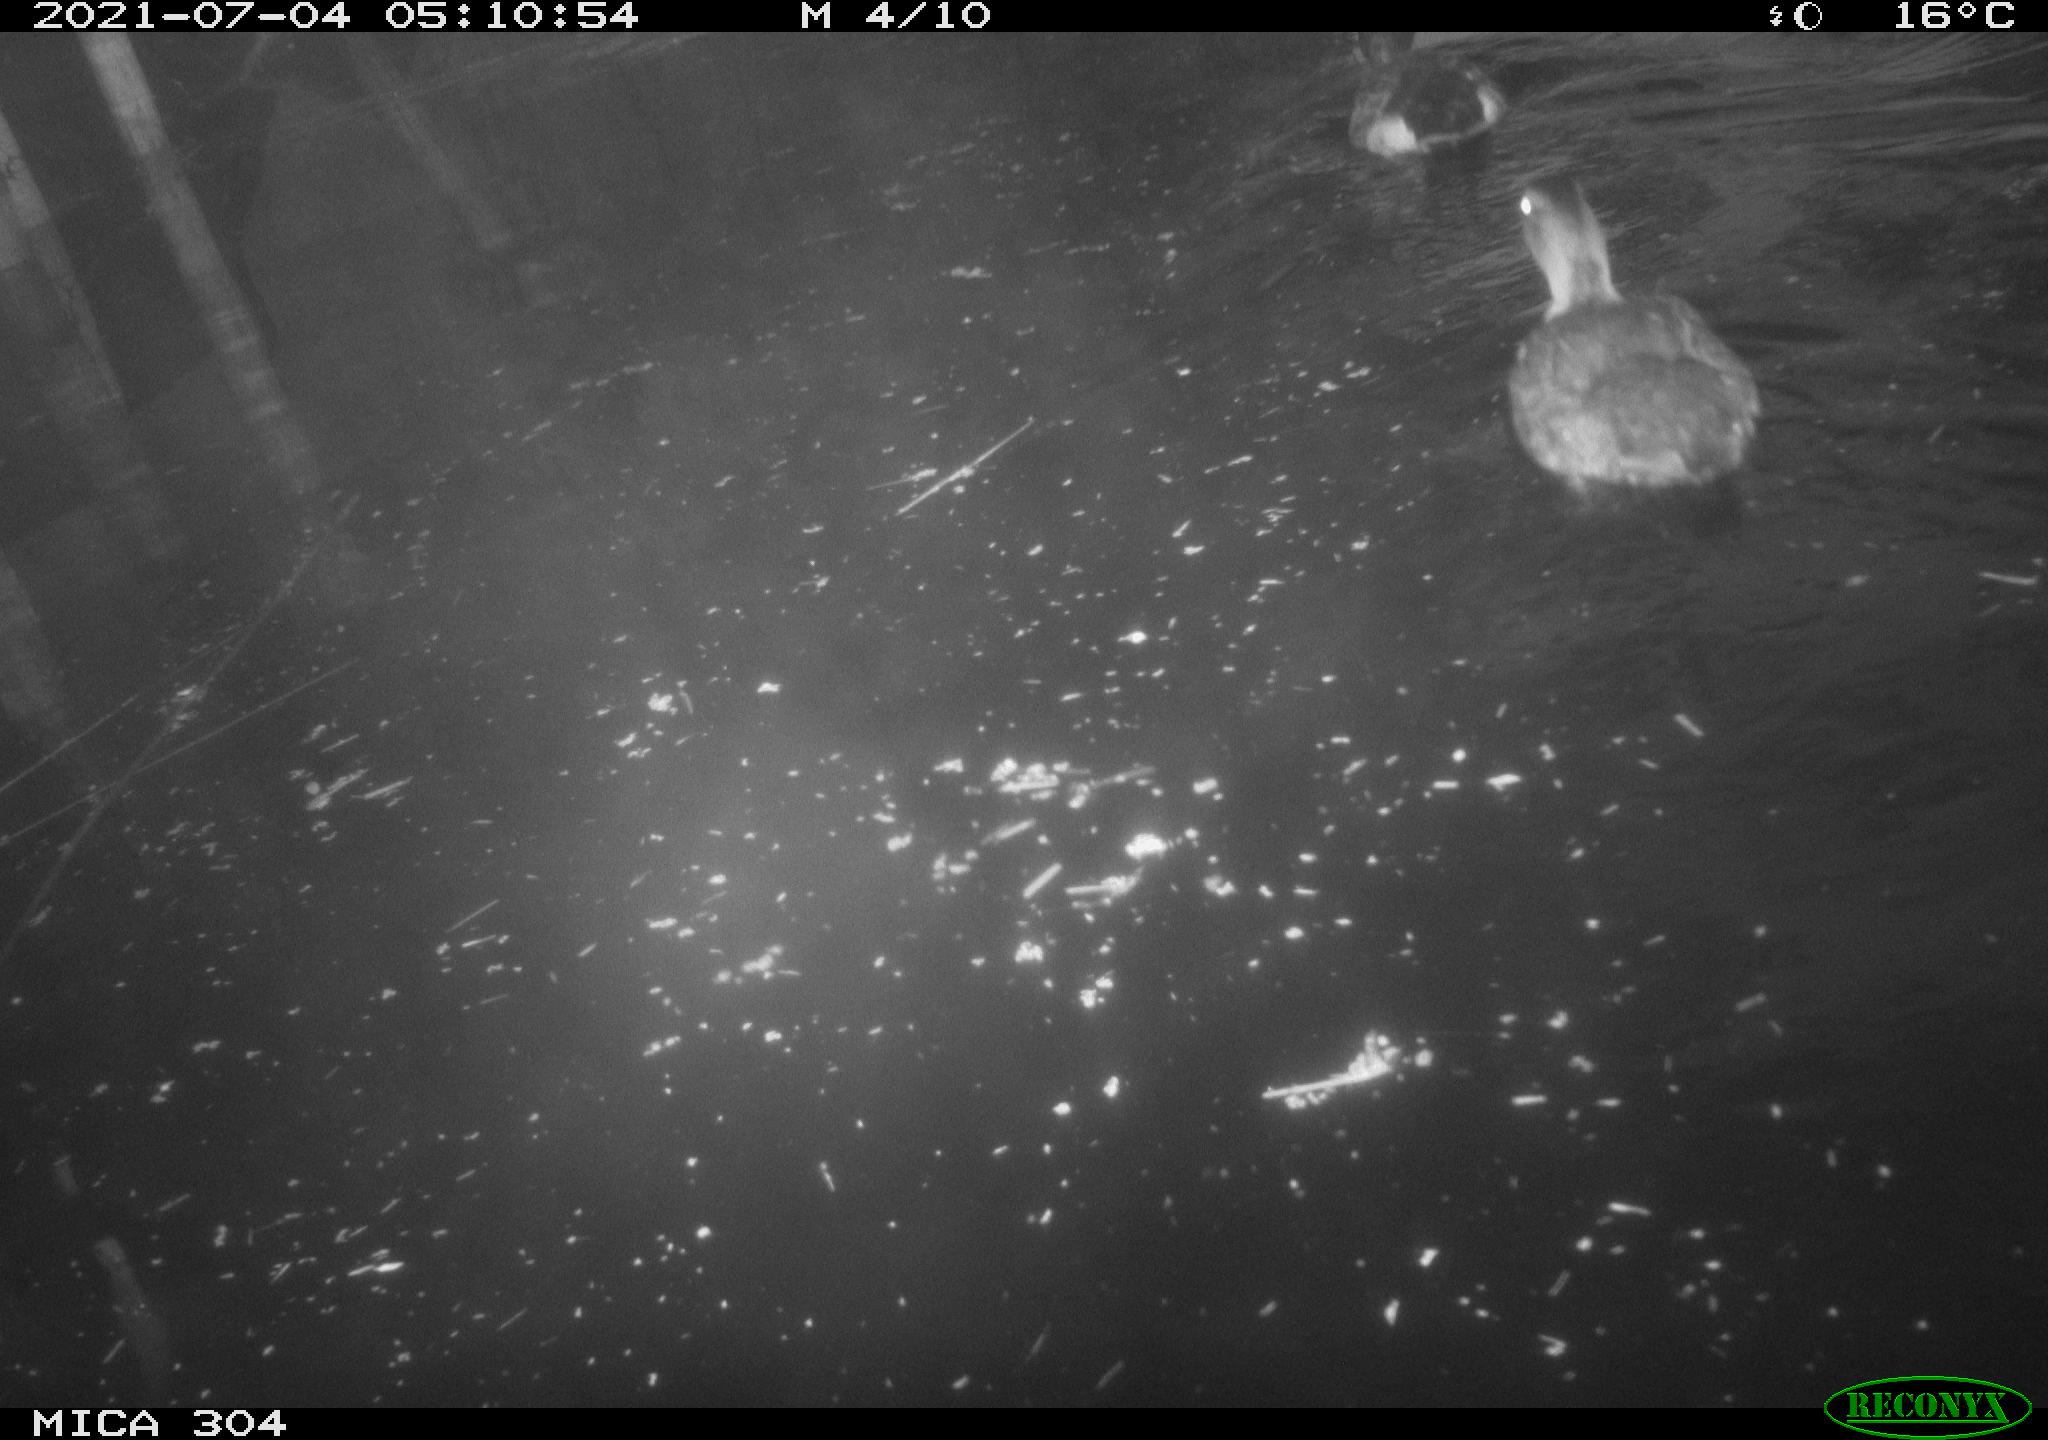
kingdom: Animalia
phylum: Chordata
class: Aves
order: Anseriformes
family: Anatidae
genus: Mareca
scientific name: Mareca strepera
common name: Gadwall
